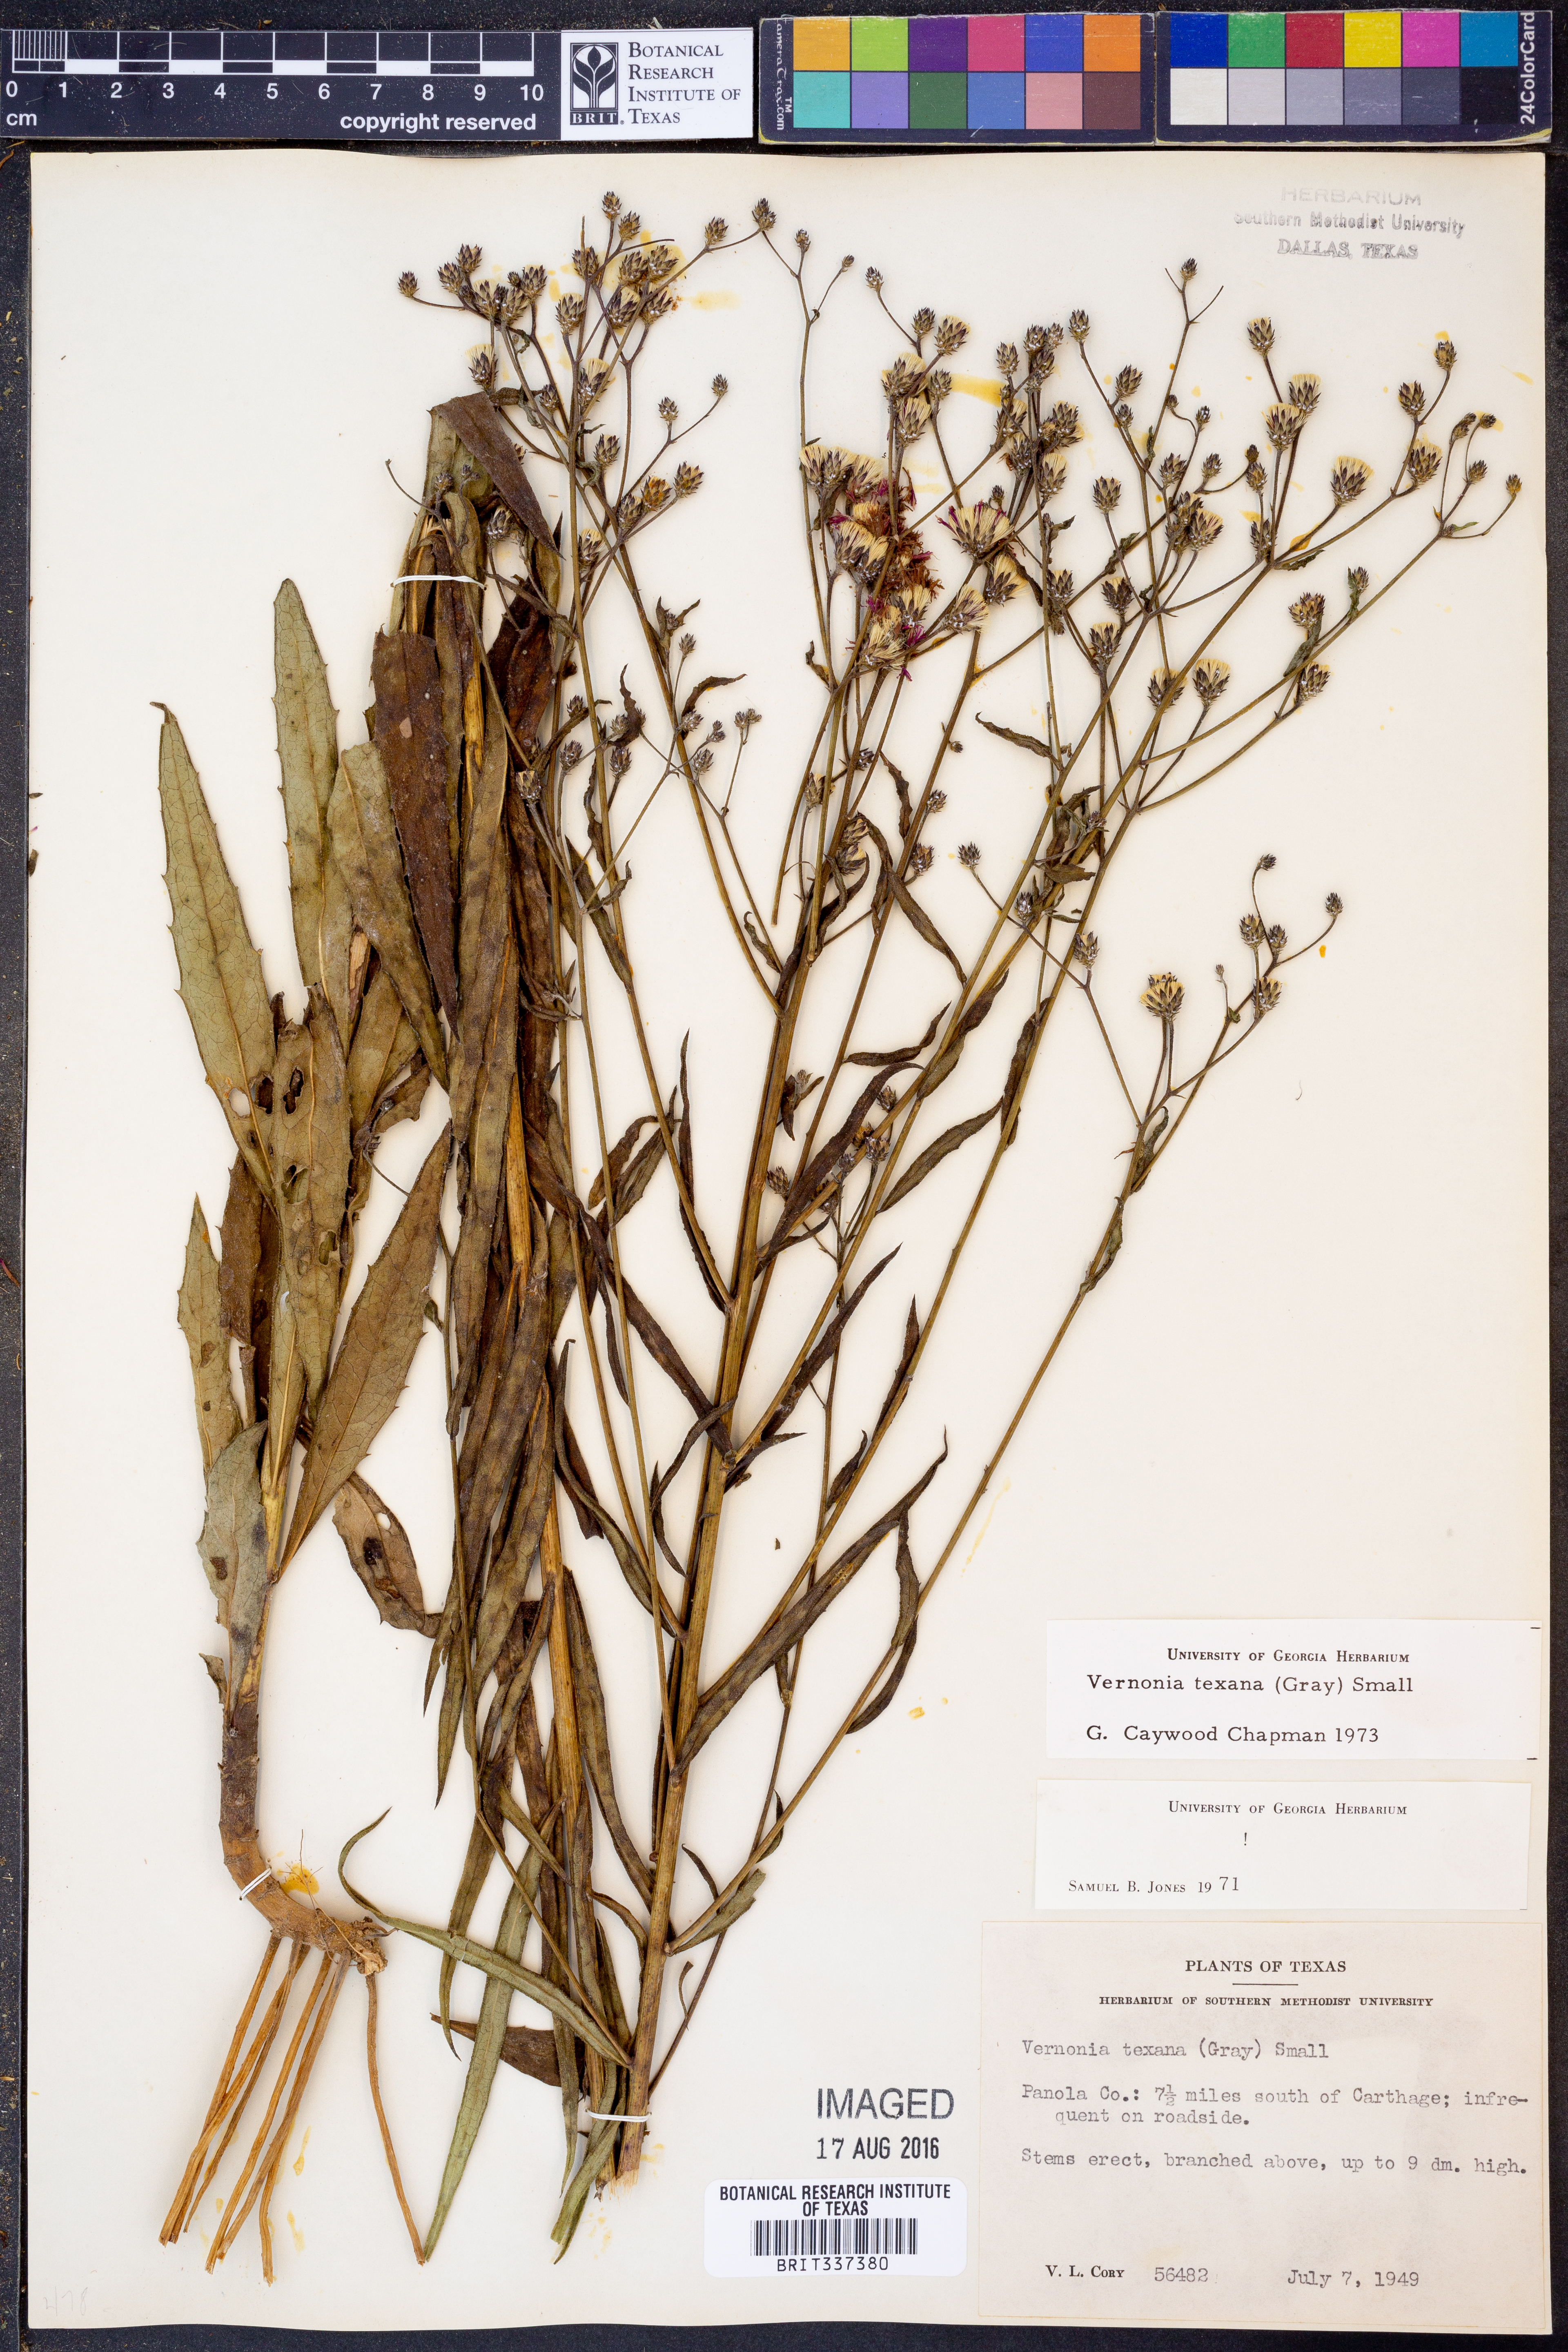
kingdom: Plantae
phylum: Tracheophyta
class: Magnoliopsida
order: Asterales
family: Asteraceae
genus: Vernonia
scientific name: Vernonia texana
